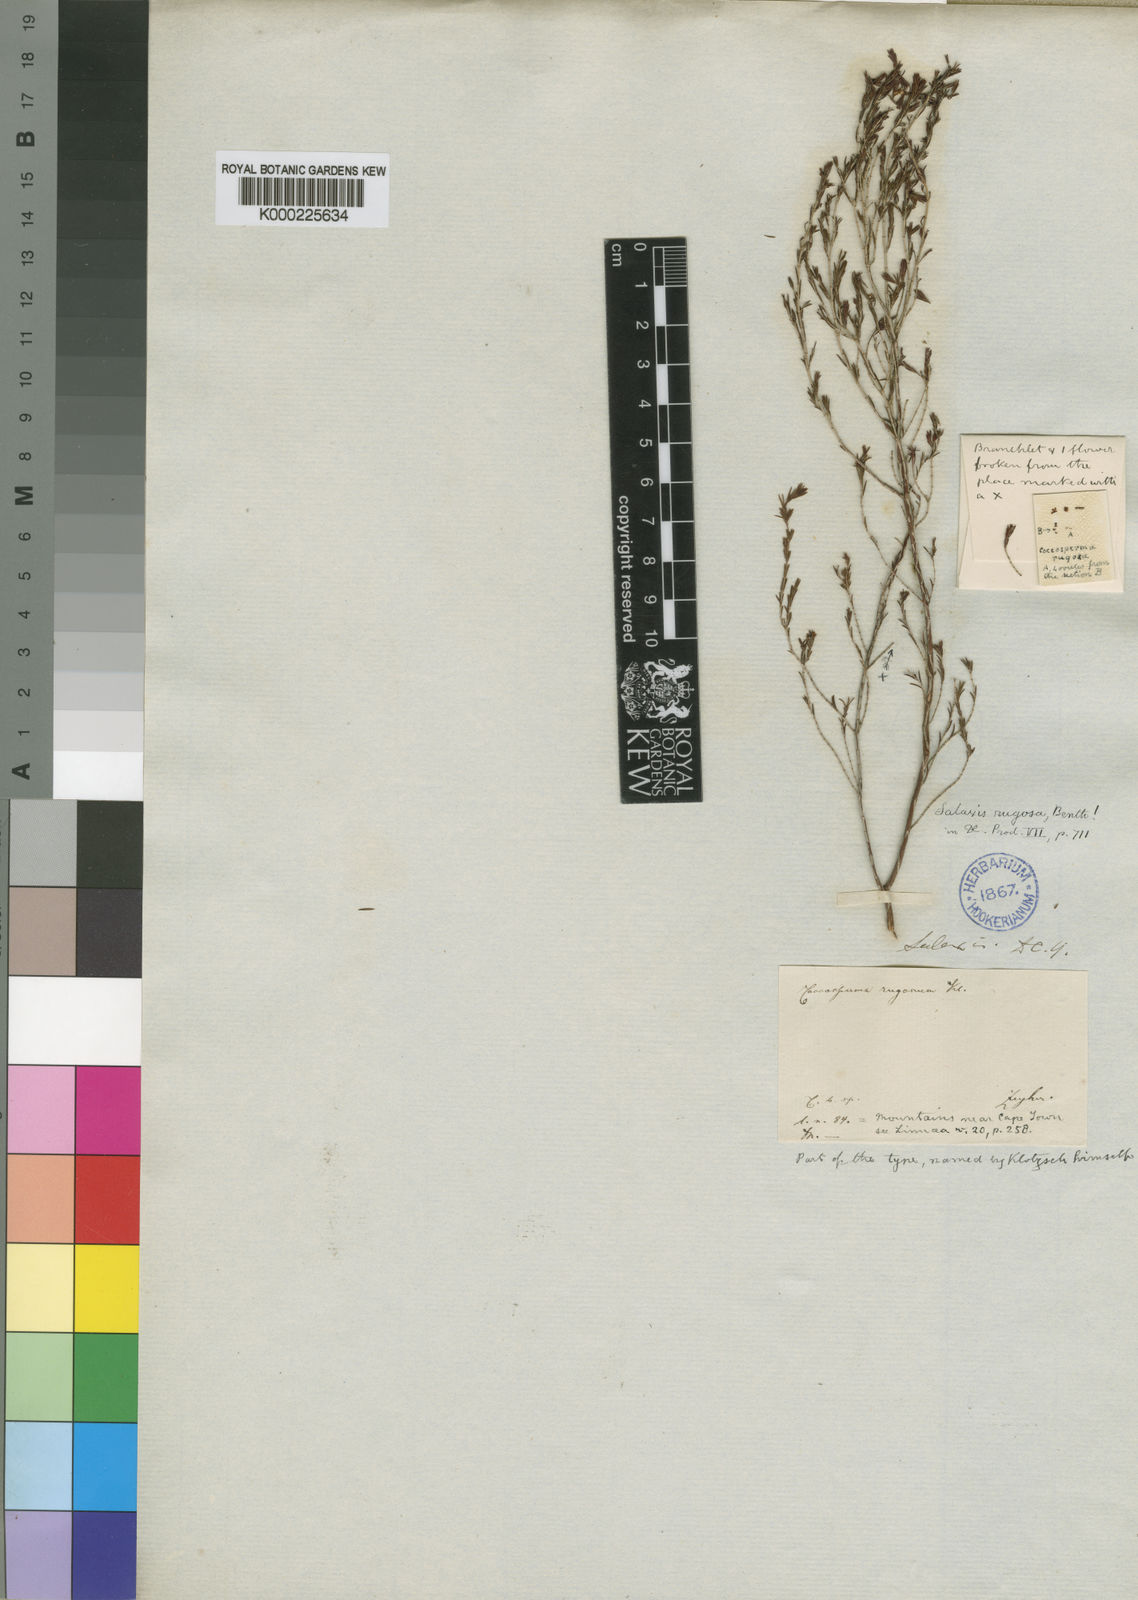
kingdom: Plantae
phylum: Tracheophyta
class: Magnoliopsida
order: Ericales
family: Ericaceae
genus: Erica
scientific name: Erica rugata
